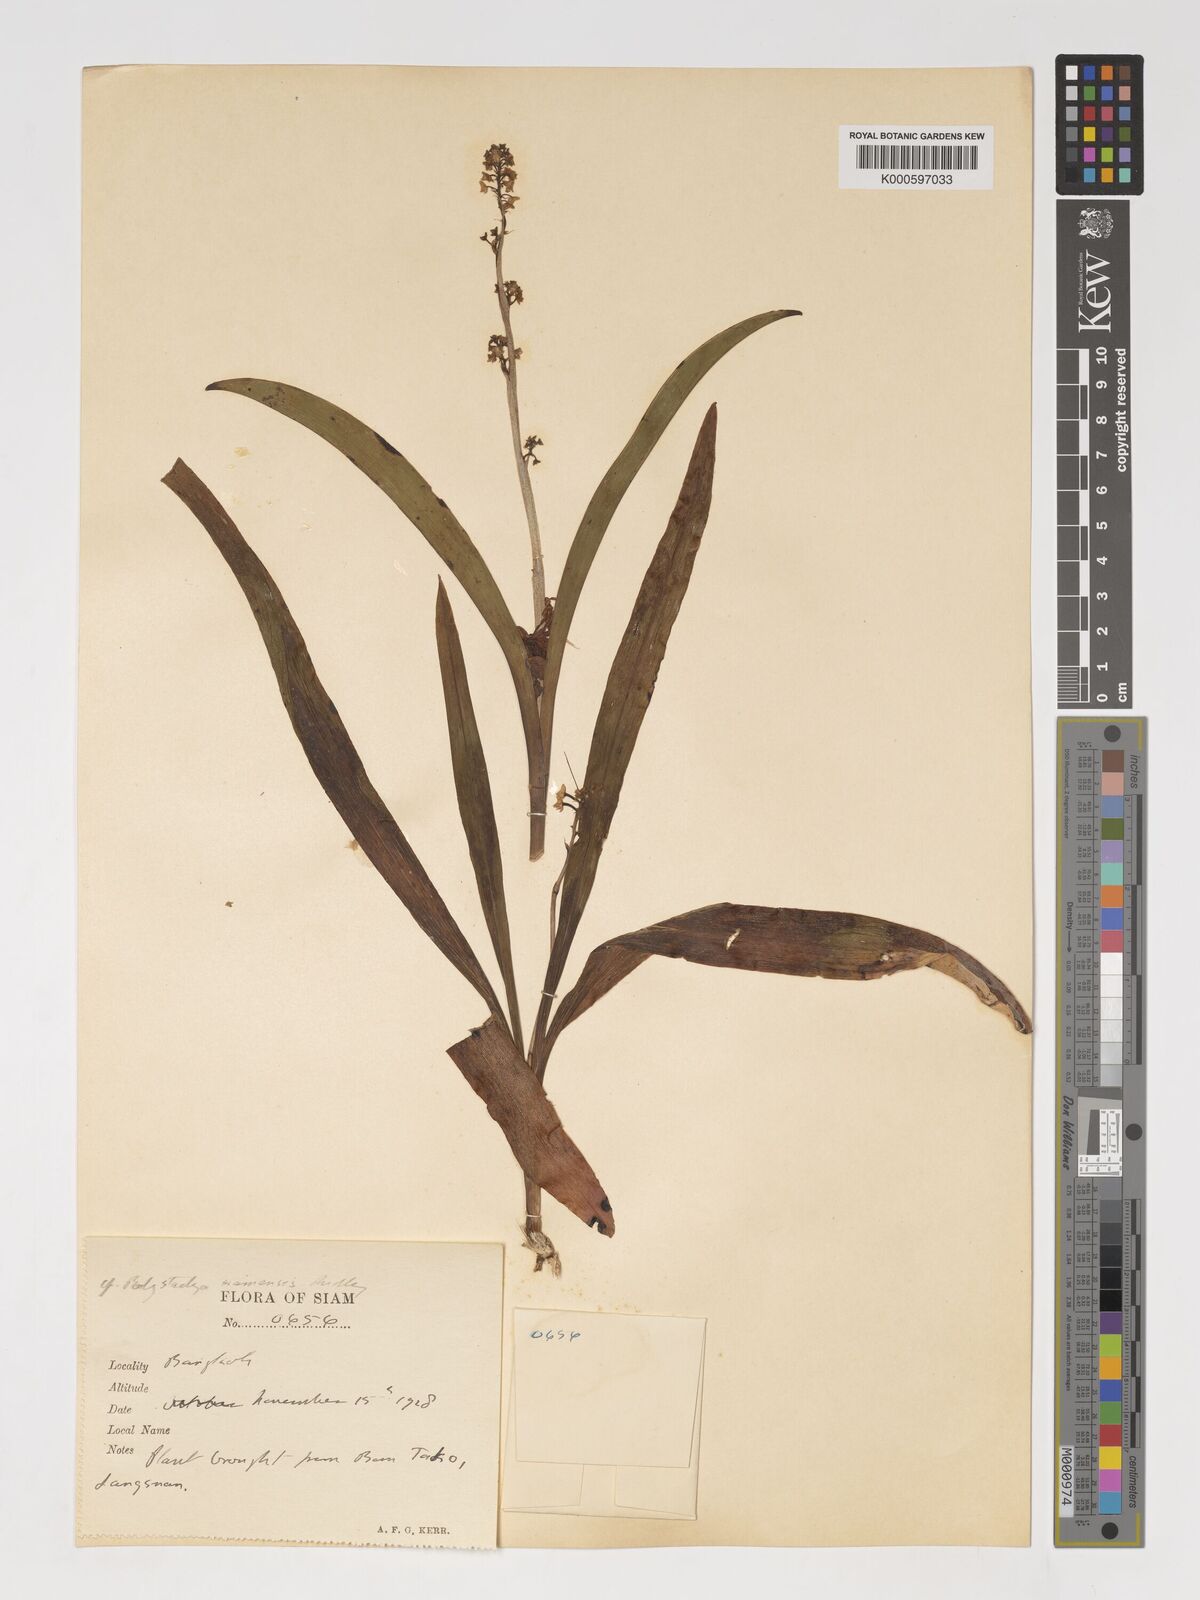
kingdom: Plantae
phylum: Tracheophyta
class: Liliopsida
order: Asparagales
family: Orchidaceae
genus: Polystachya
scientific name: Polystachya concreta
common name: Greater yellowspike orchid
